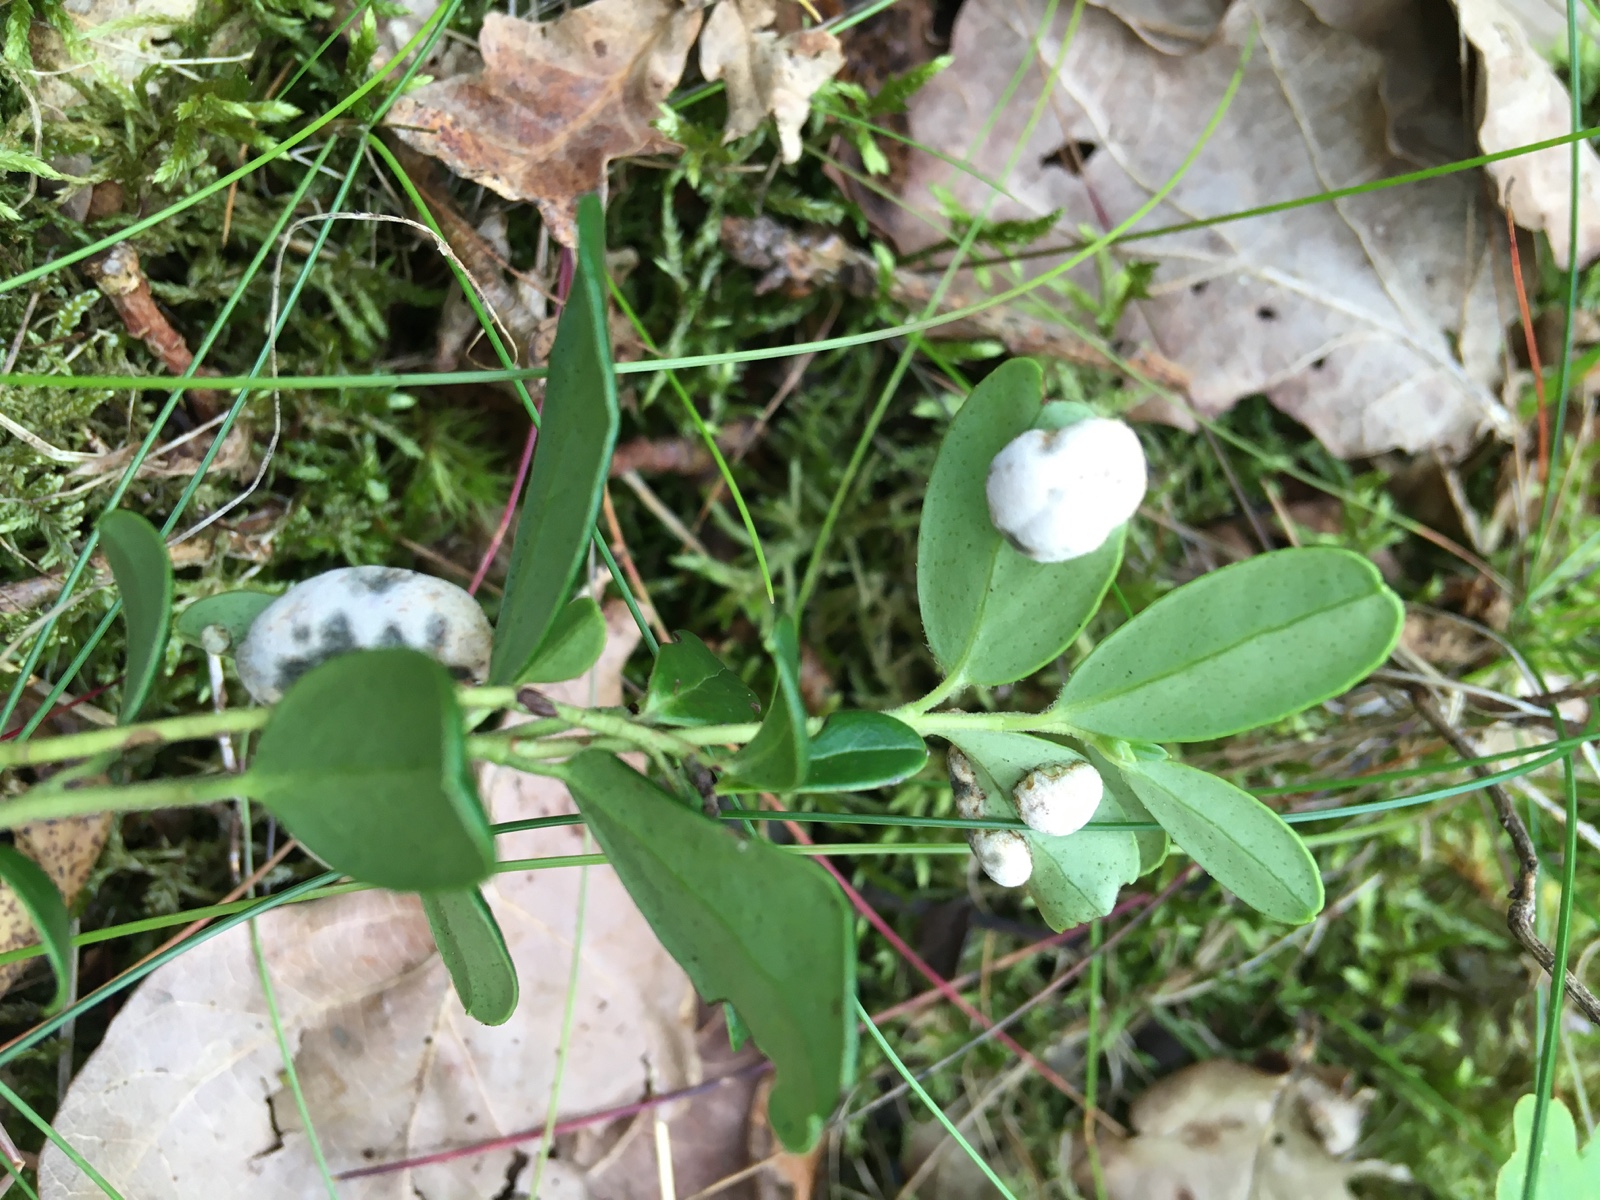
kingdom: Fungi
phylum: Basidiomycota
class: Exobasidiomycetes
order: Exobasidiales
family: Exobasidiaceae
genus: Exobasidium
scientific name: Exobasidium vaccinii
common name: tyttebærblad-bøllesvamp
